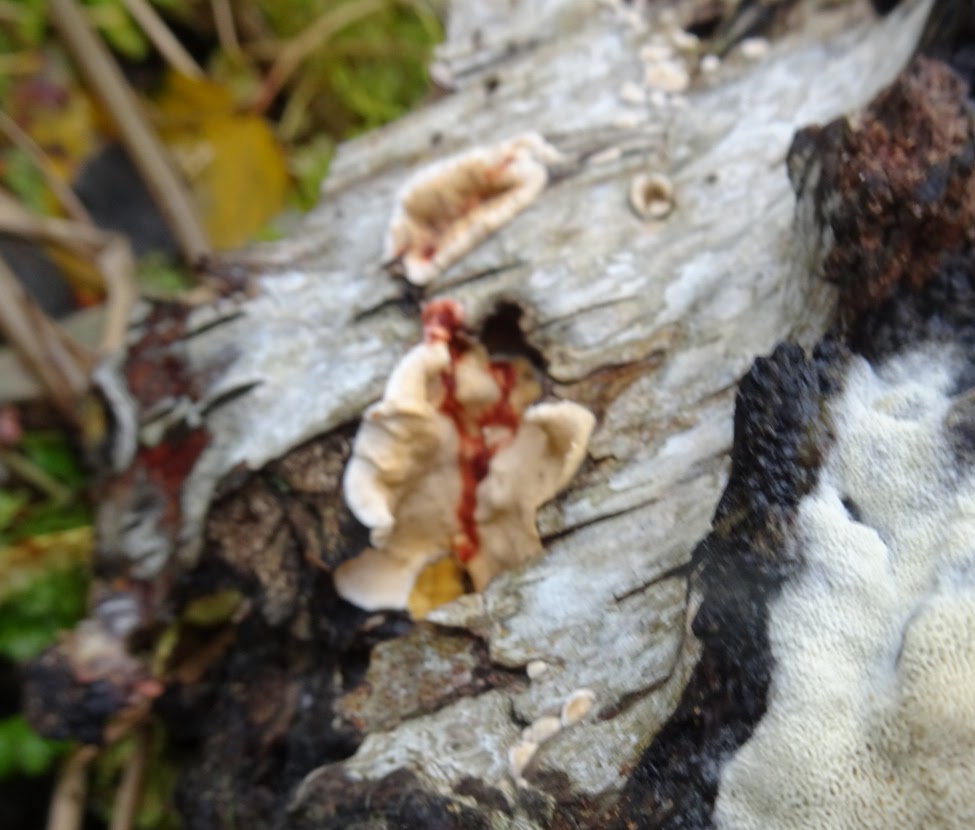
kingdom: Fungi
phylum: Basidiomycota
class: Agaricomycetes
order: Russulales
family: Stereaceae
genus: Stereum
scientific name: Stereum rugosum
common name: rynket lædersvamp
